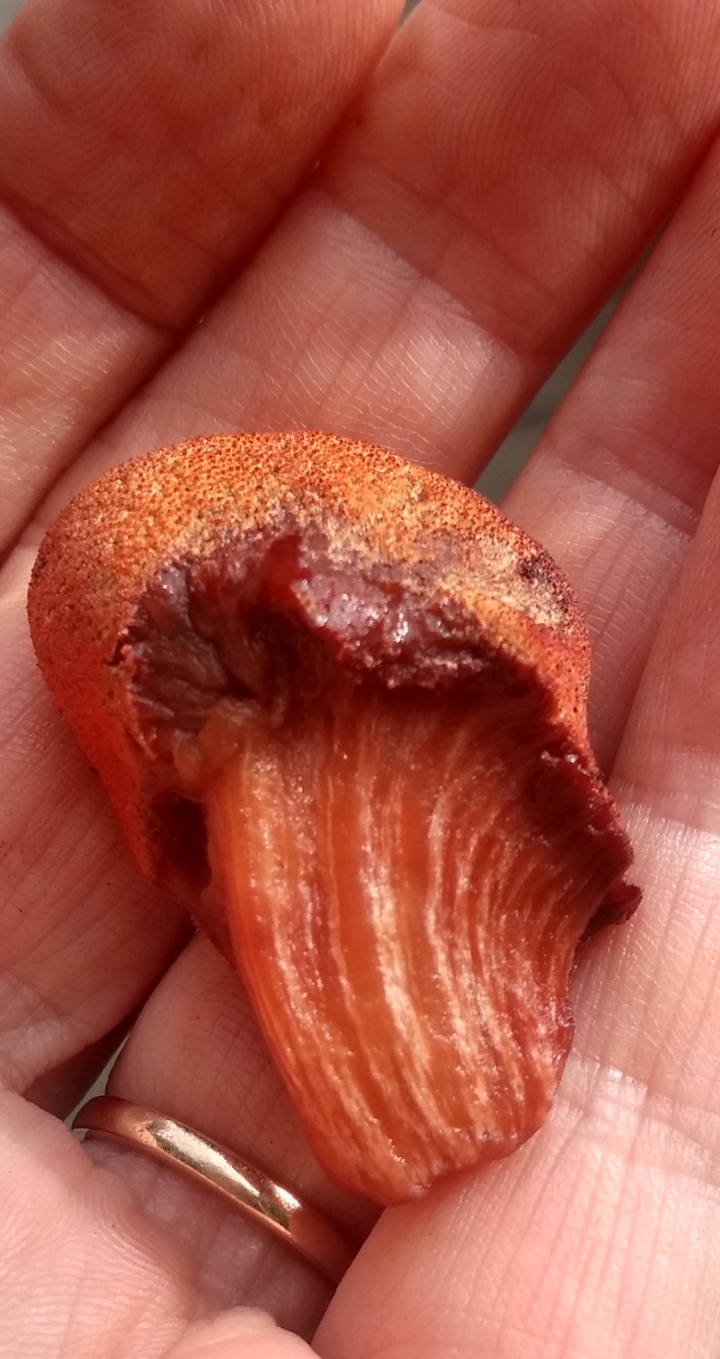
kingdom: Fungi
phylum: Basidiomycota
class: Agaricomycetes
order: Agaricales
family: Fistulinaceae
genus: Fistulina
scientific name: Fistulina hepatica
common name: oksetunge
